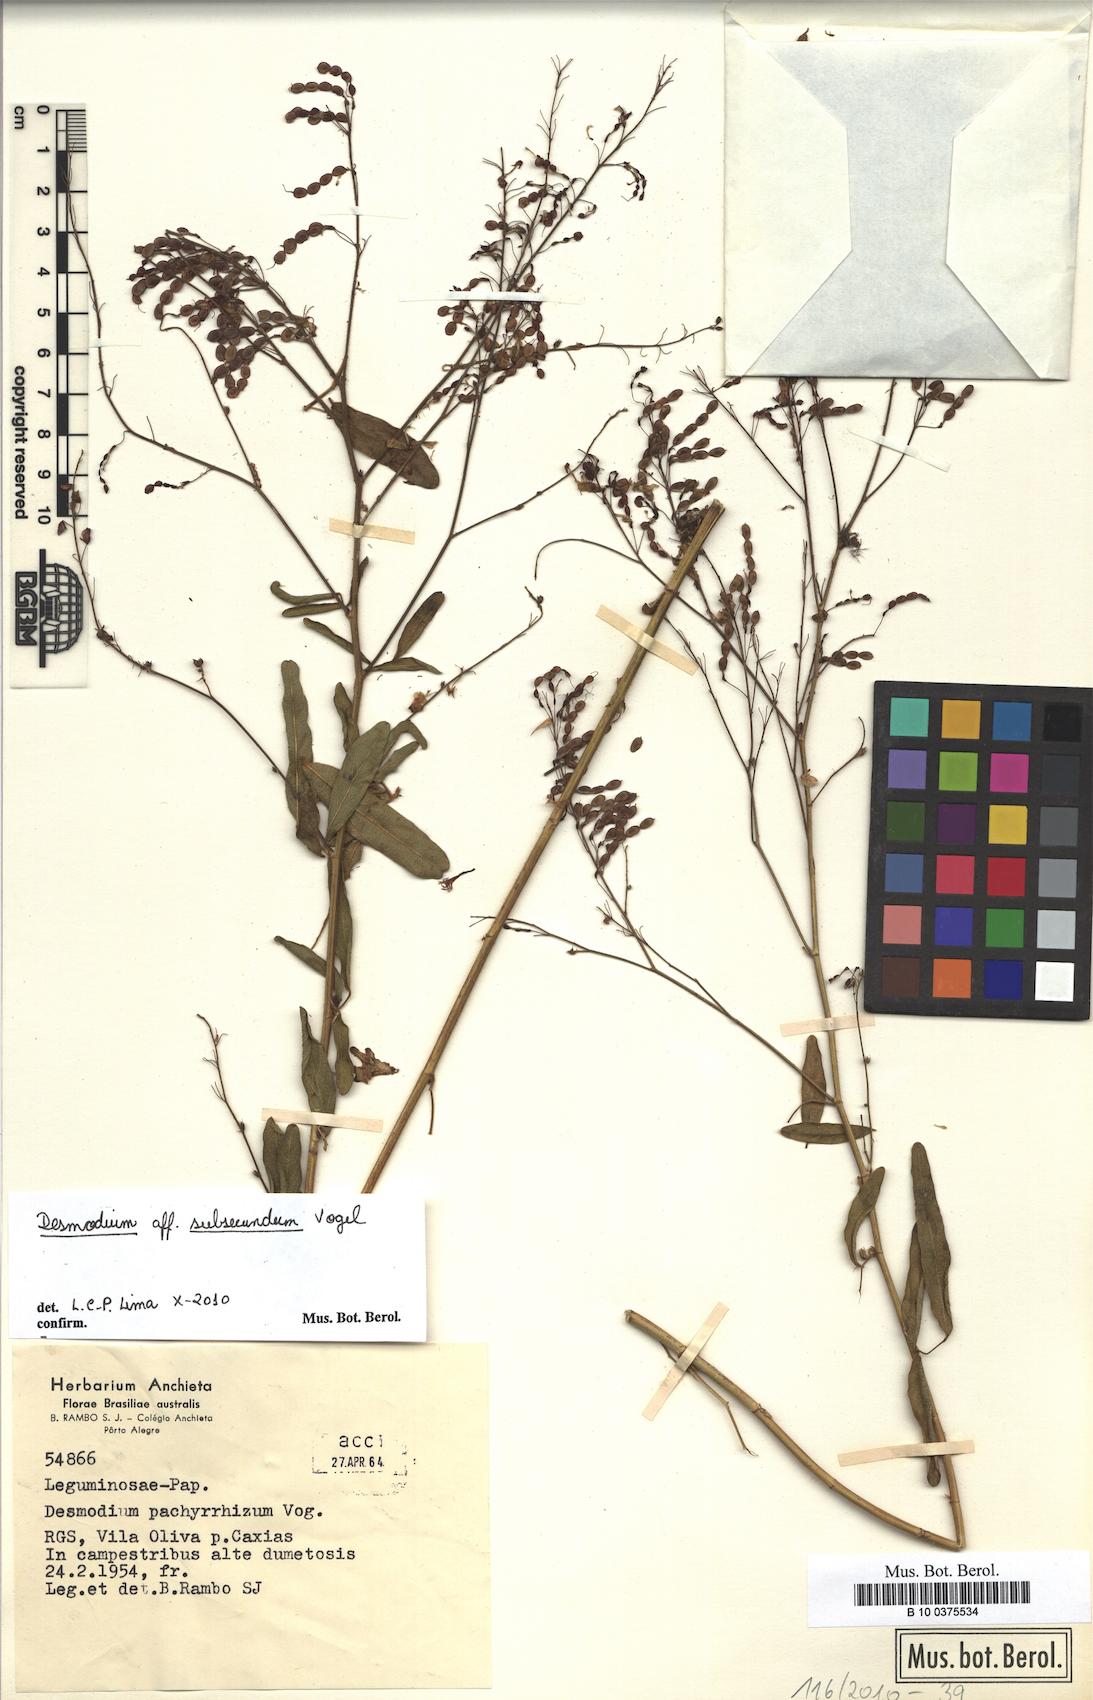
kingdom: Plantae
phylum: Tracheophyta
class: Magnoliopsida
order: Fabales
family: Fabaceae
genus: Desmodium
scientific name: Desmodium subsecundum
